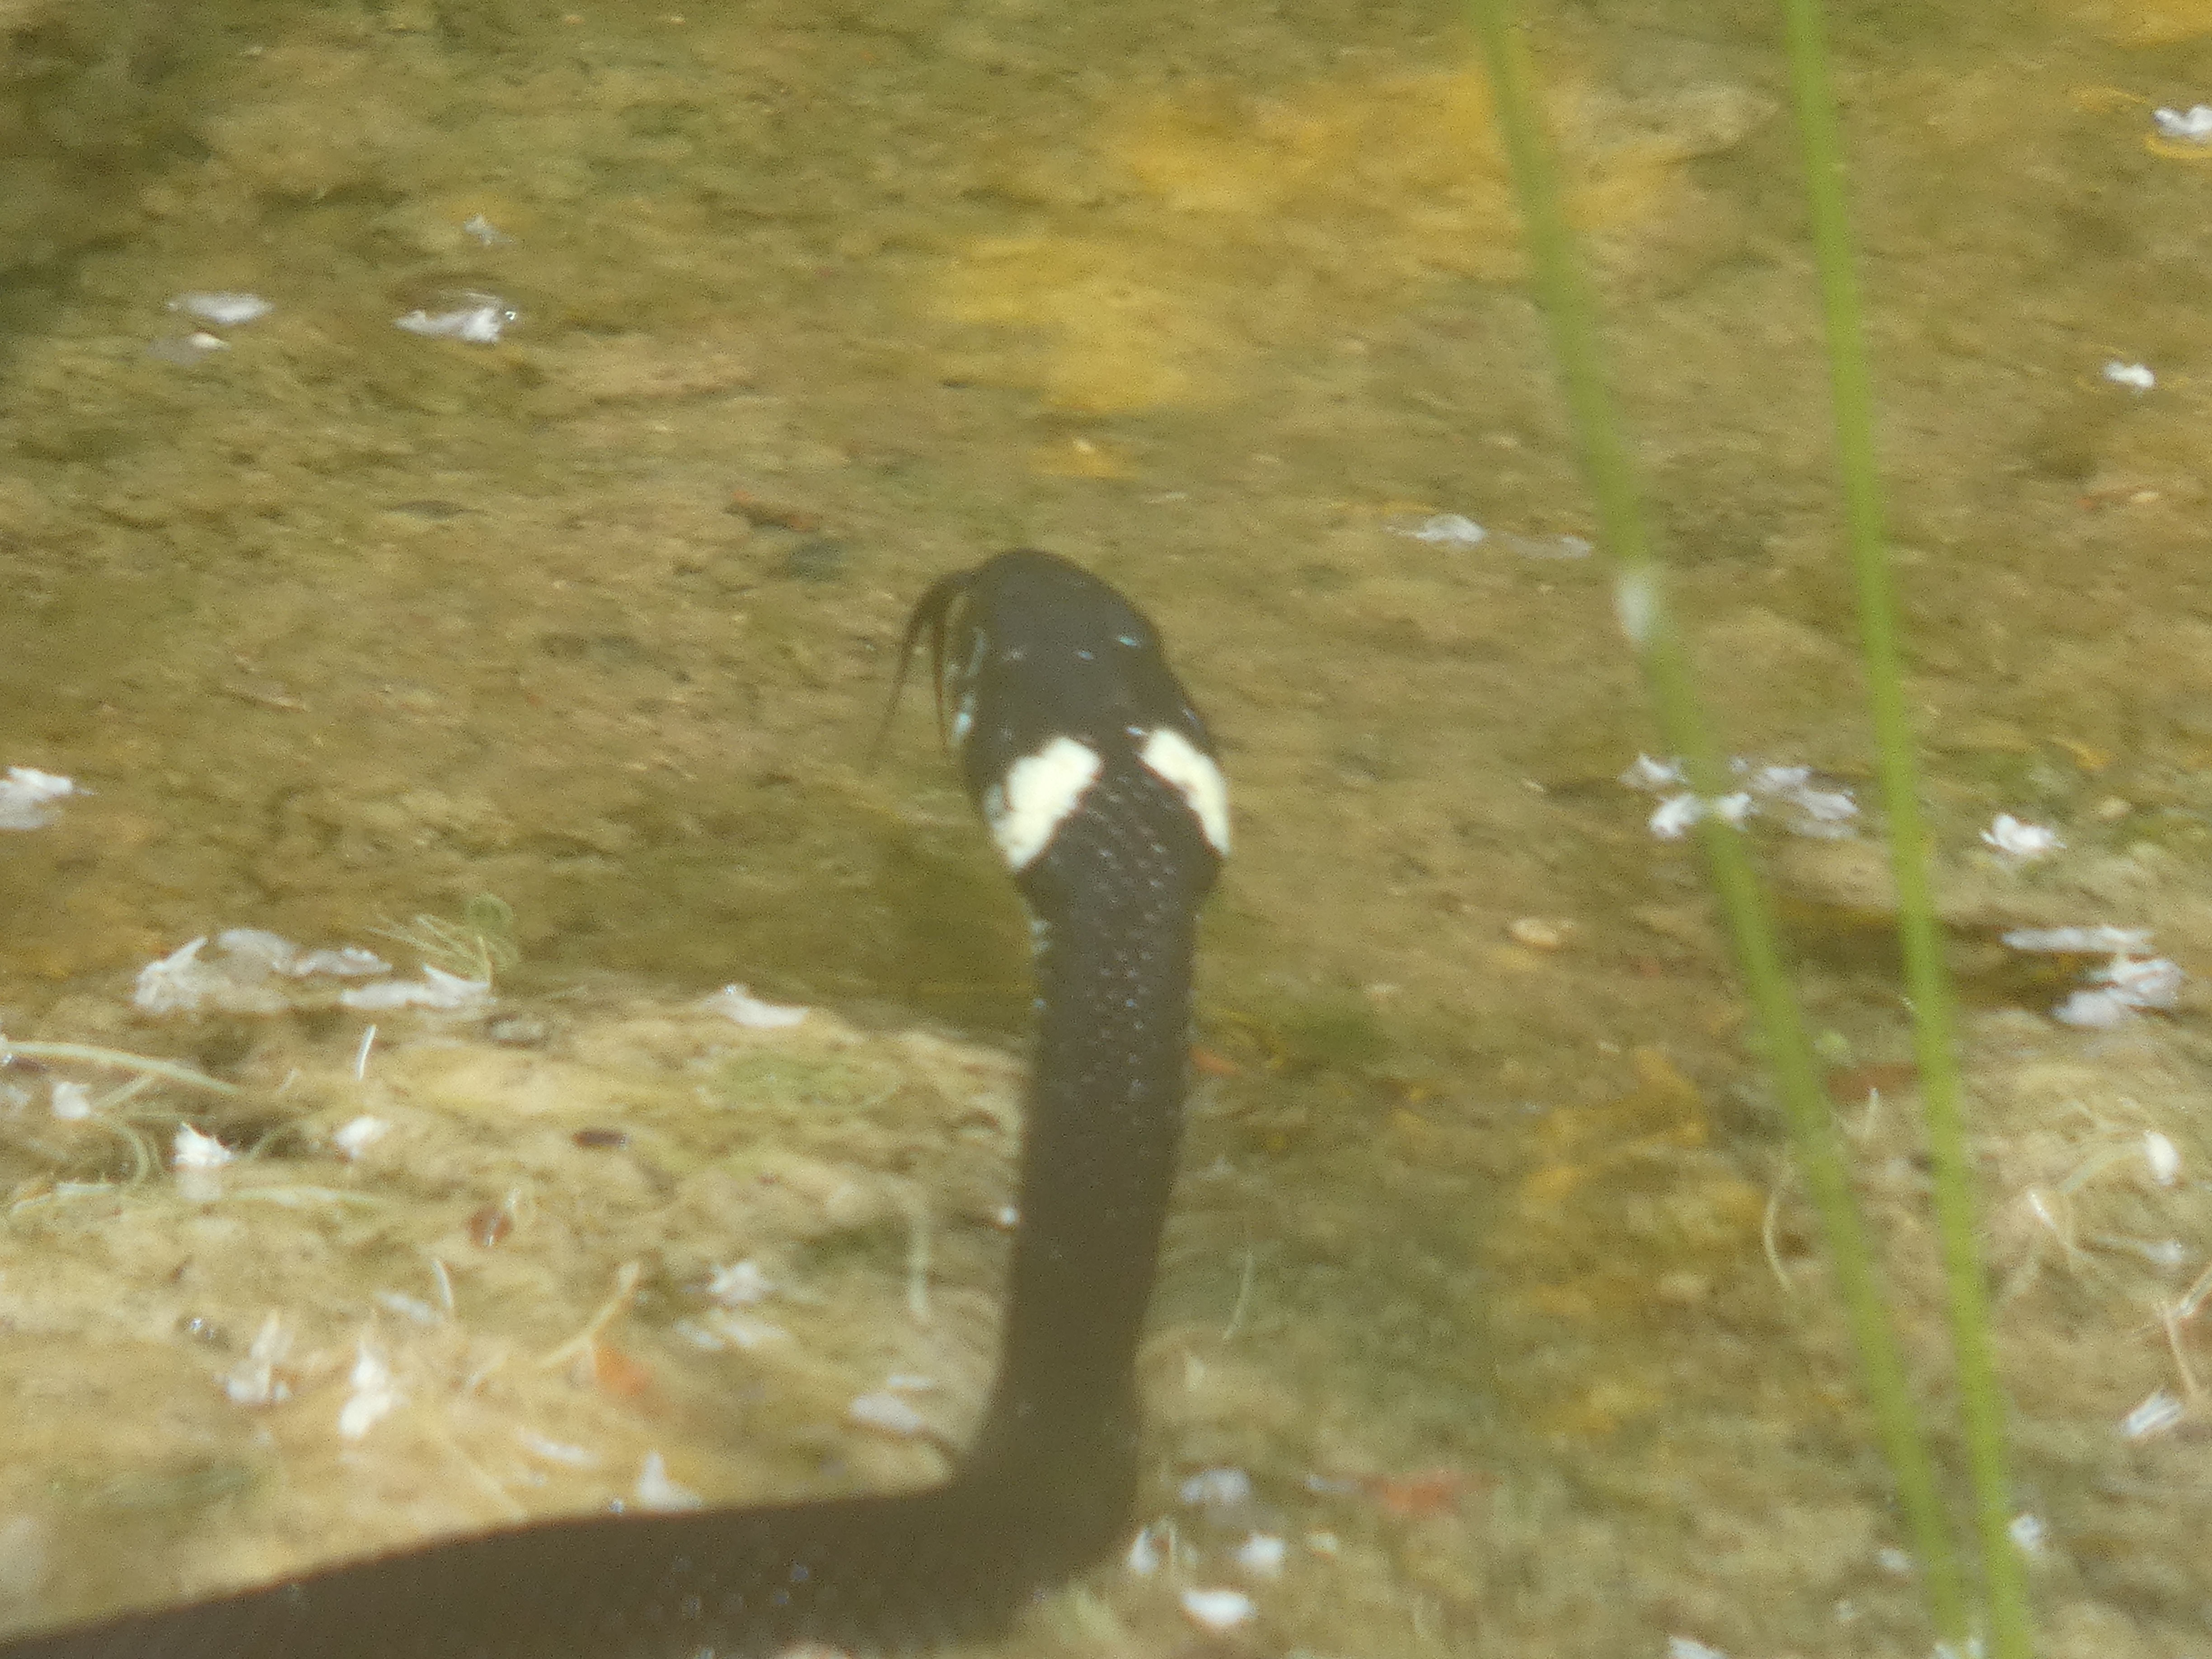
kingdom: Animalia
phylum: Chordata
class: Squamata
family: Colubridae
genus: Natrix
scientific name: Natrix natrix
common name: Snog
